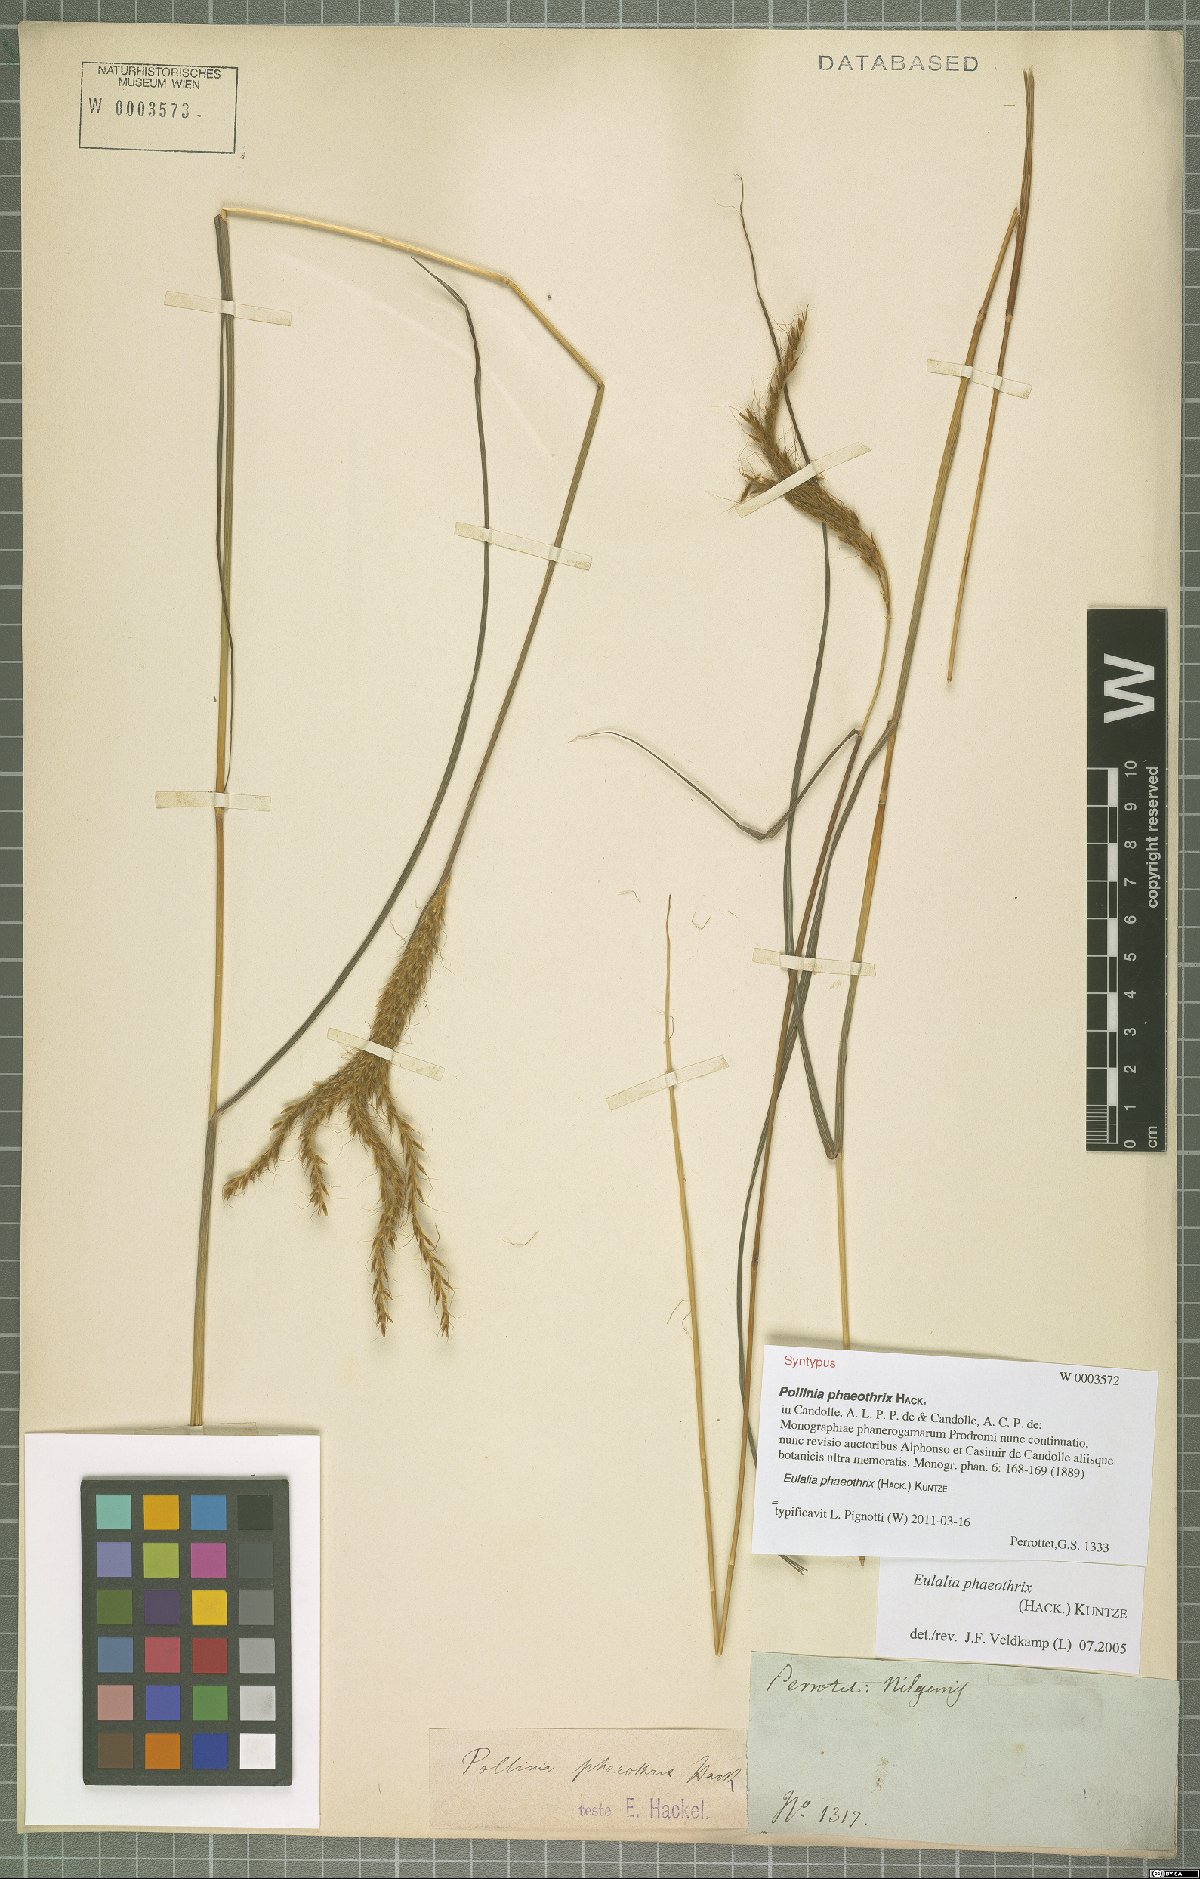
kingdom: Plantae
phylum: Tracheophyta
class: Liliopsida
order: Poales
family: Poaceae
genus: Eulalia
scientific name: Eulalia phaeothrix
